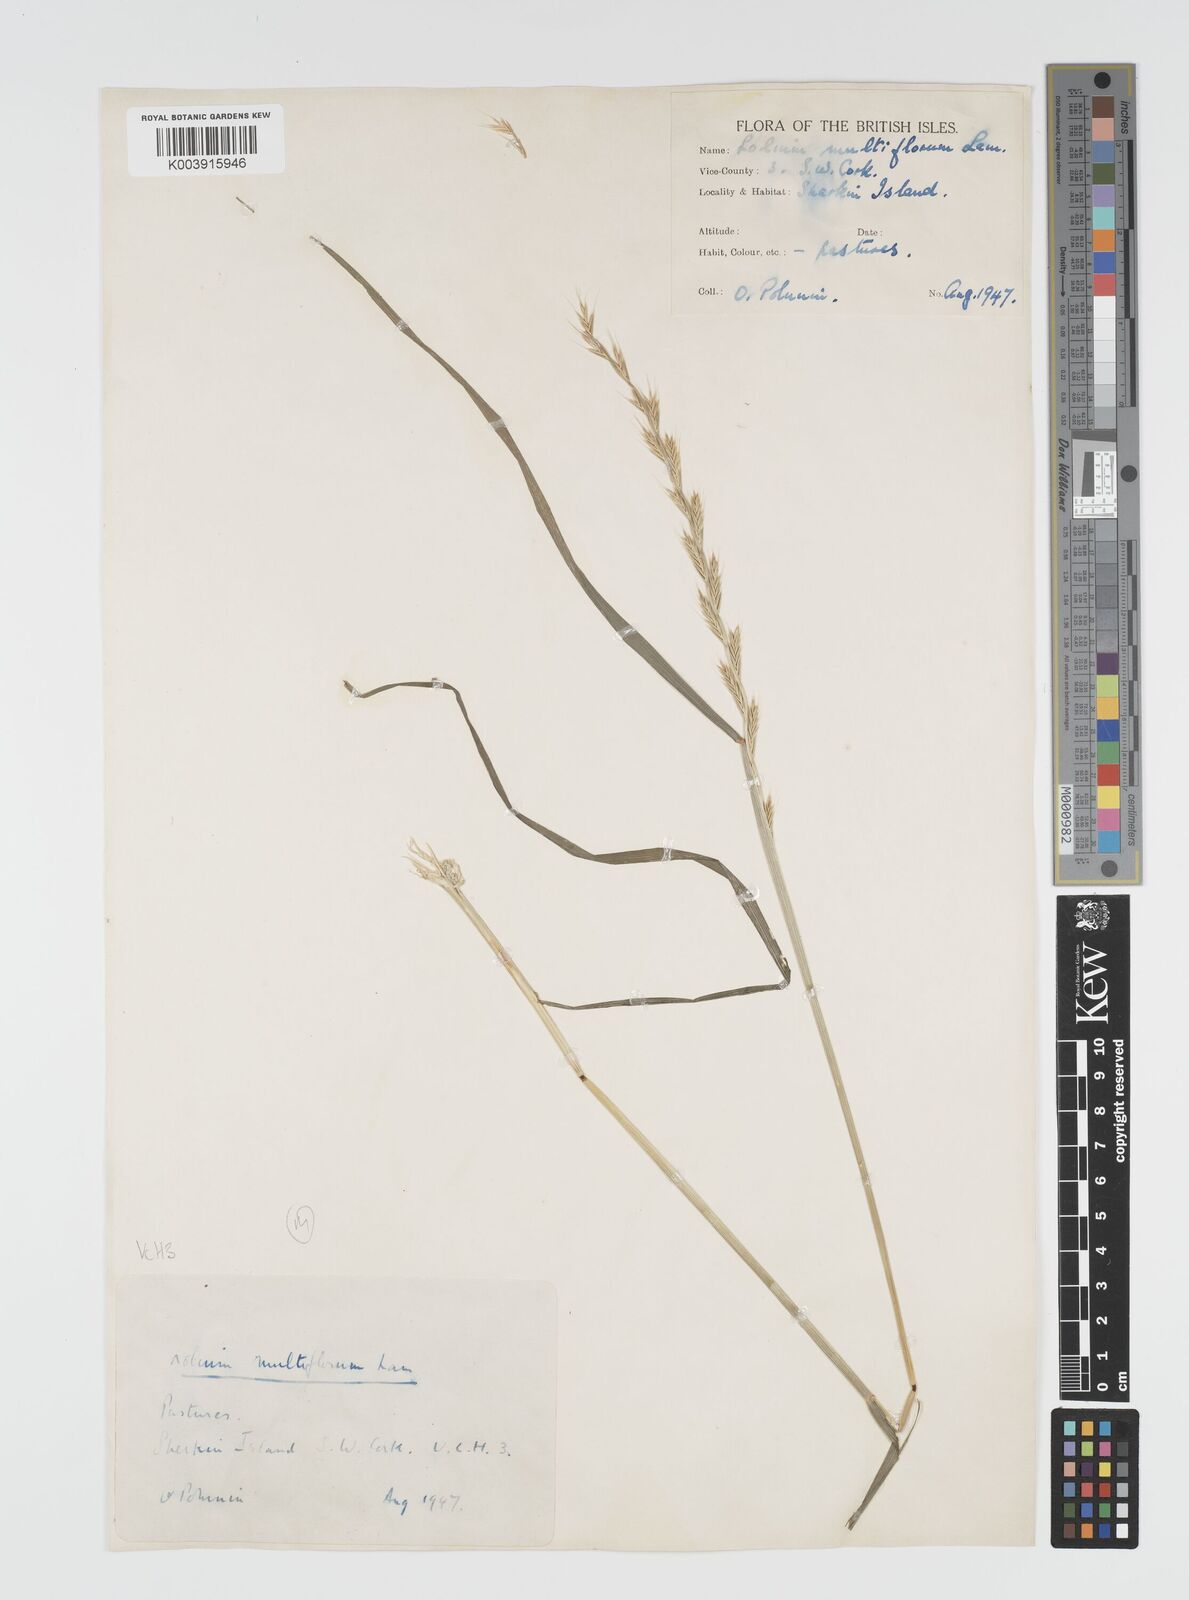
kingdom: Plantae
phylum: Tracheophyta
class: Liliopsida
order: Poales
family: Poaceae
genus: Lolium
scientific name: Lolium multiflorum
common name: Annual ryegrass
